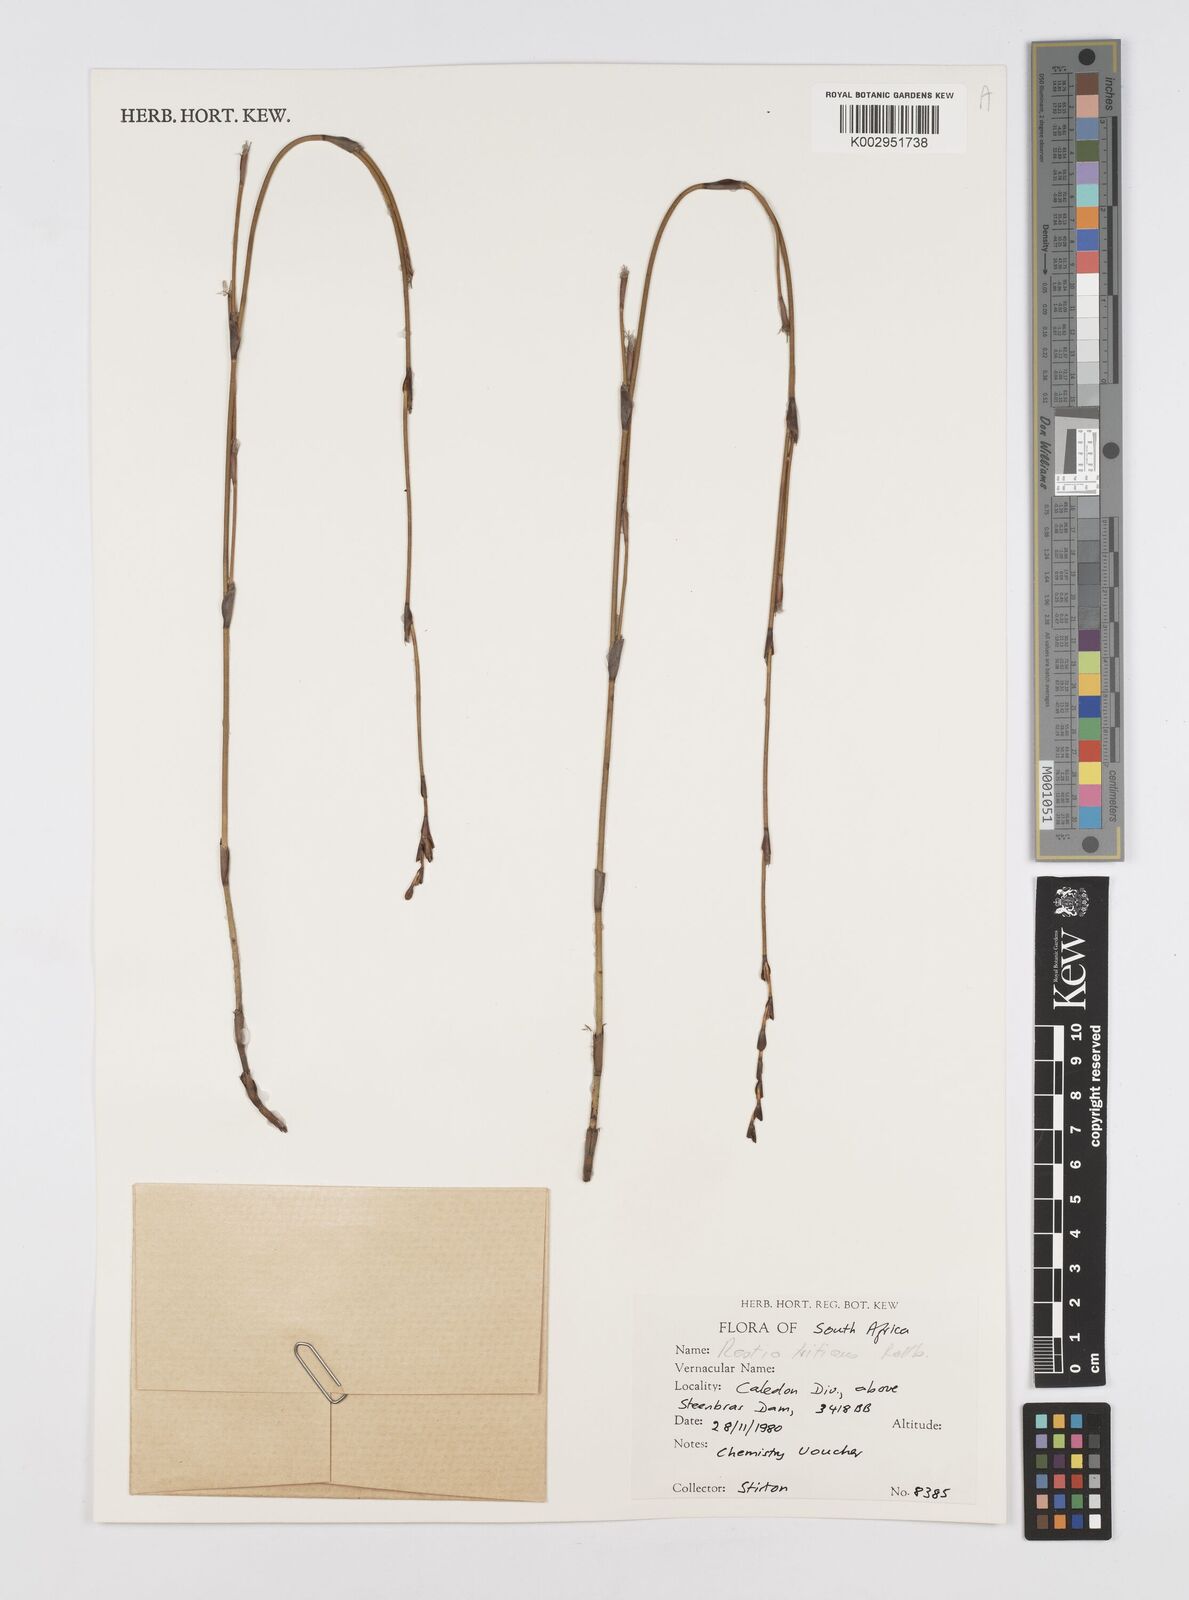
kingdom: Plantae
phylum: Tracheophyta
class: Liliopsida
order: Poales
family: Restionaceae
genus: Restio
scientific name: Restio triticeus
